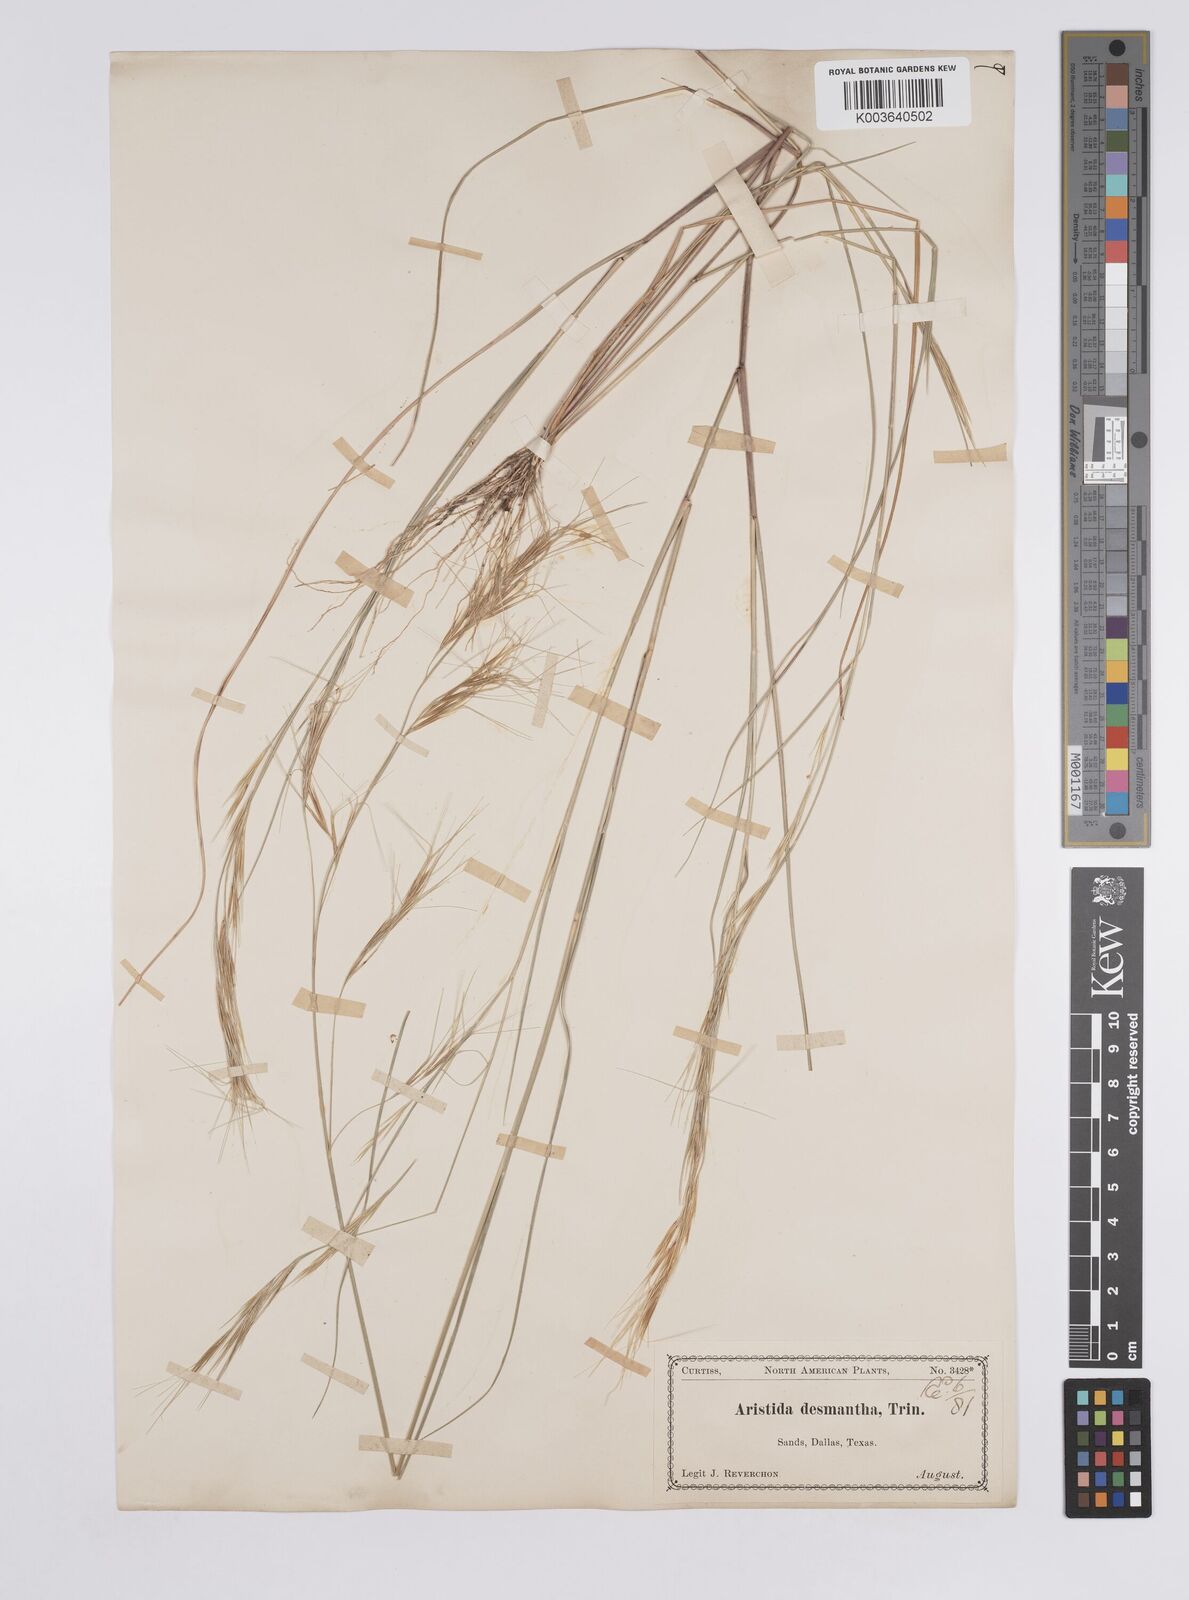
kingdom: Plantae
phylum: Tracheophyta
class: Liliopsida
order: Poales
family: Poaceae
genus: Aristida
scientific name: Aristida desmantha
